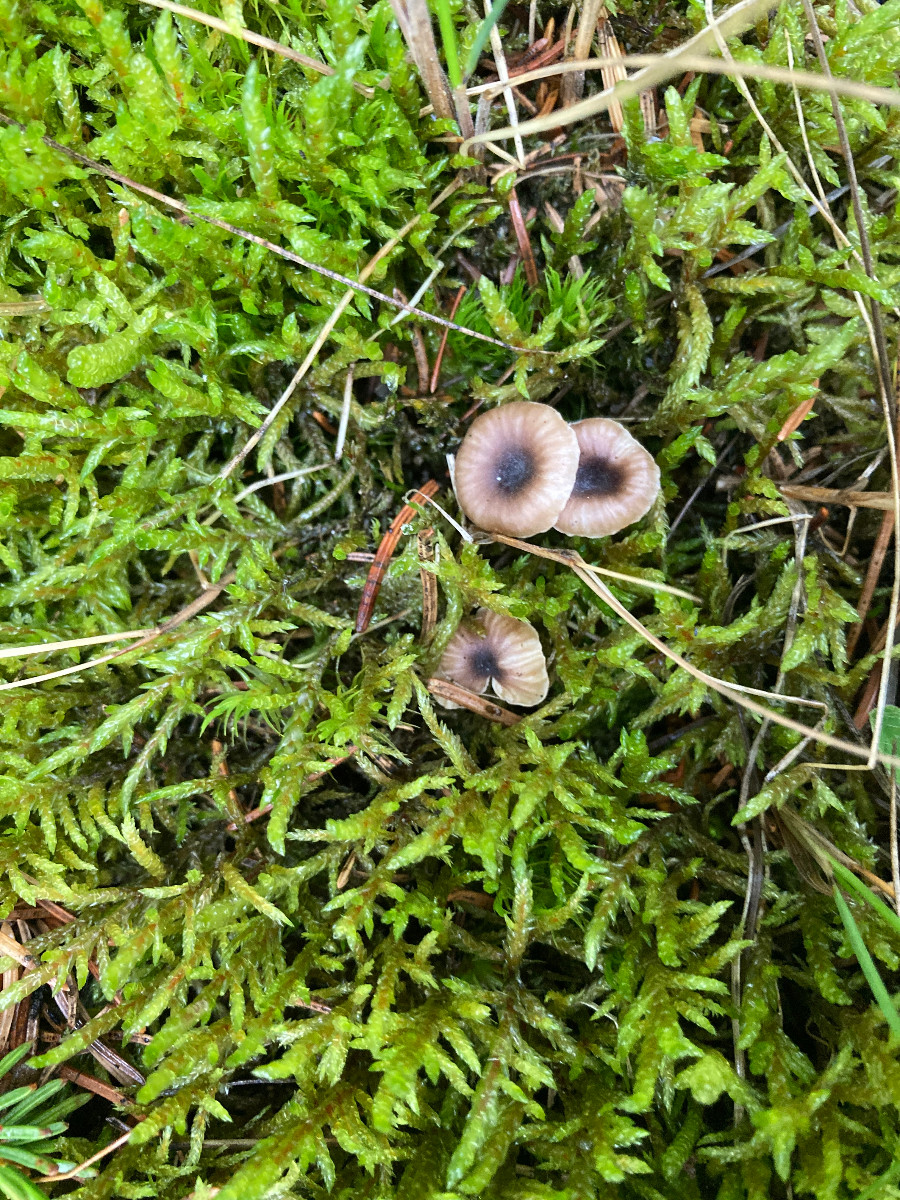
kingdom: Fungi
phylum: Basidiomycota
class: Agaricomycetes
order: Hymenochaetales
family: Rickenellaceae
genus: Rickenella
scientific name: Rickenella swartzii
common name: finstokket mosnavlehat
